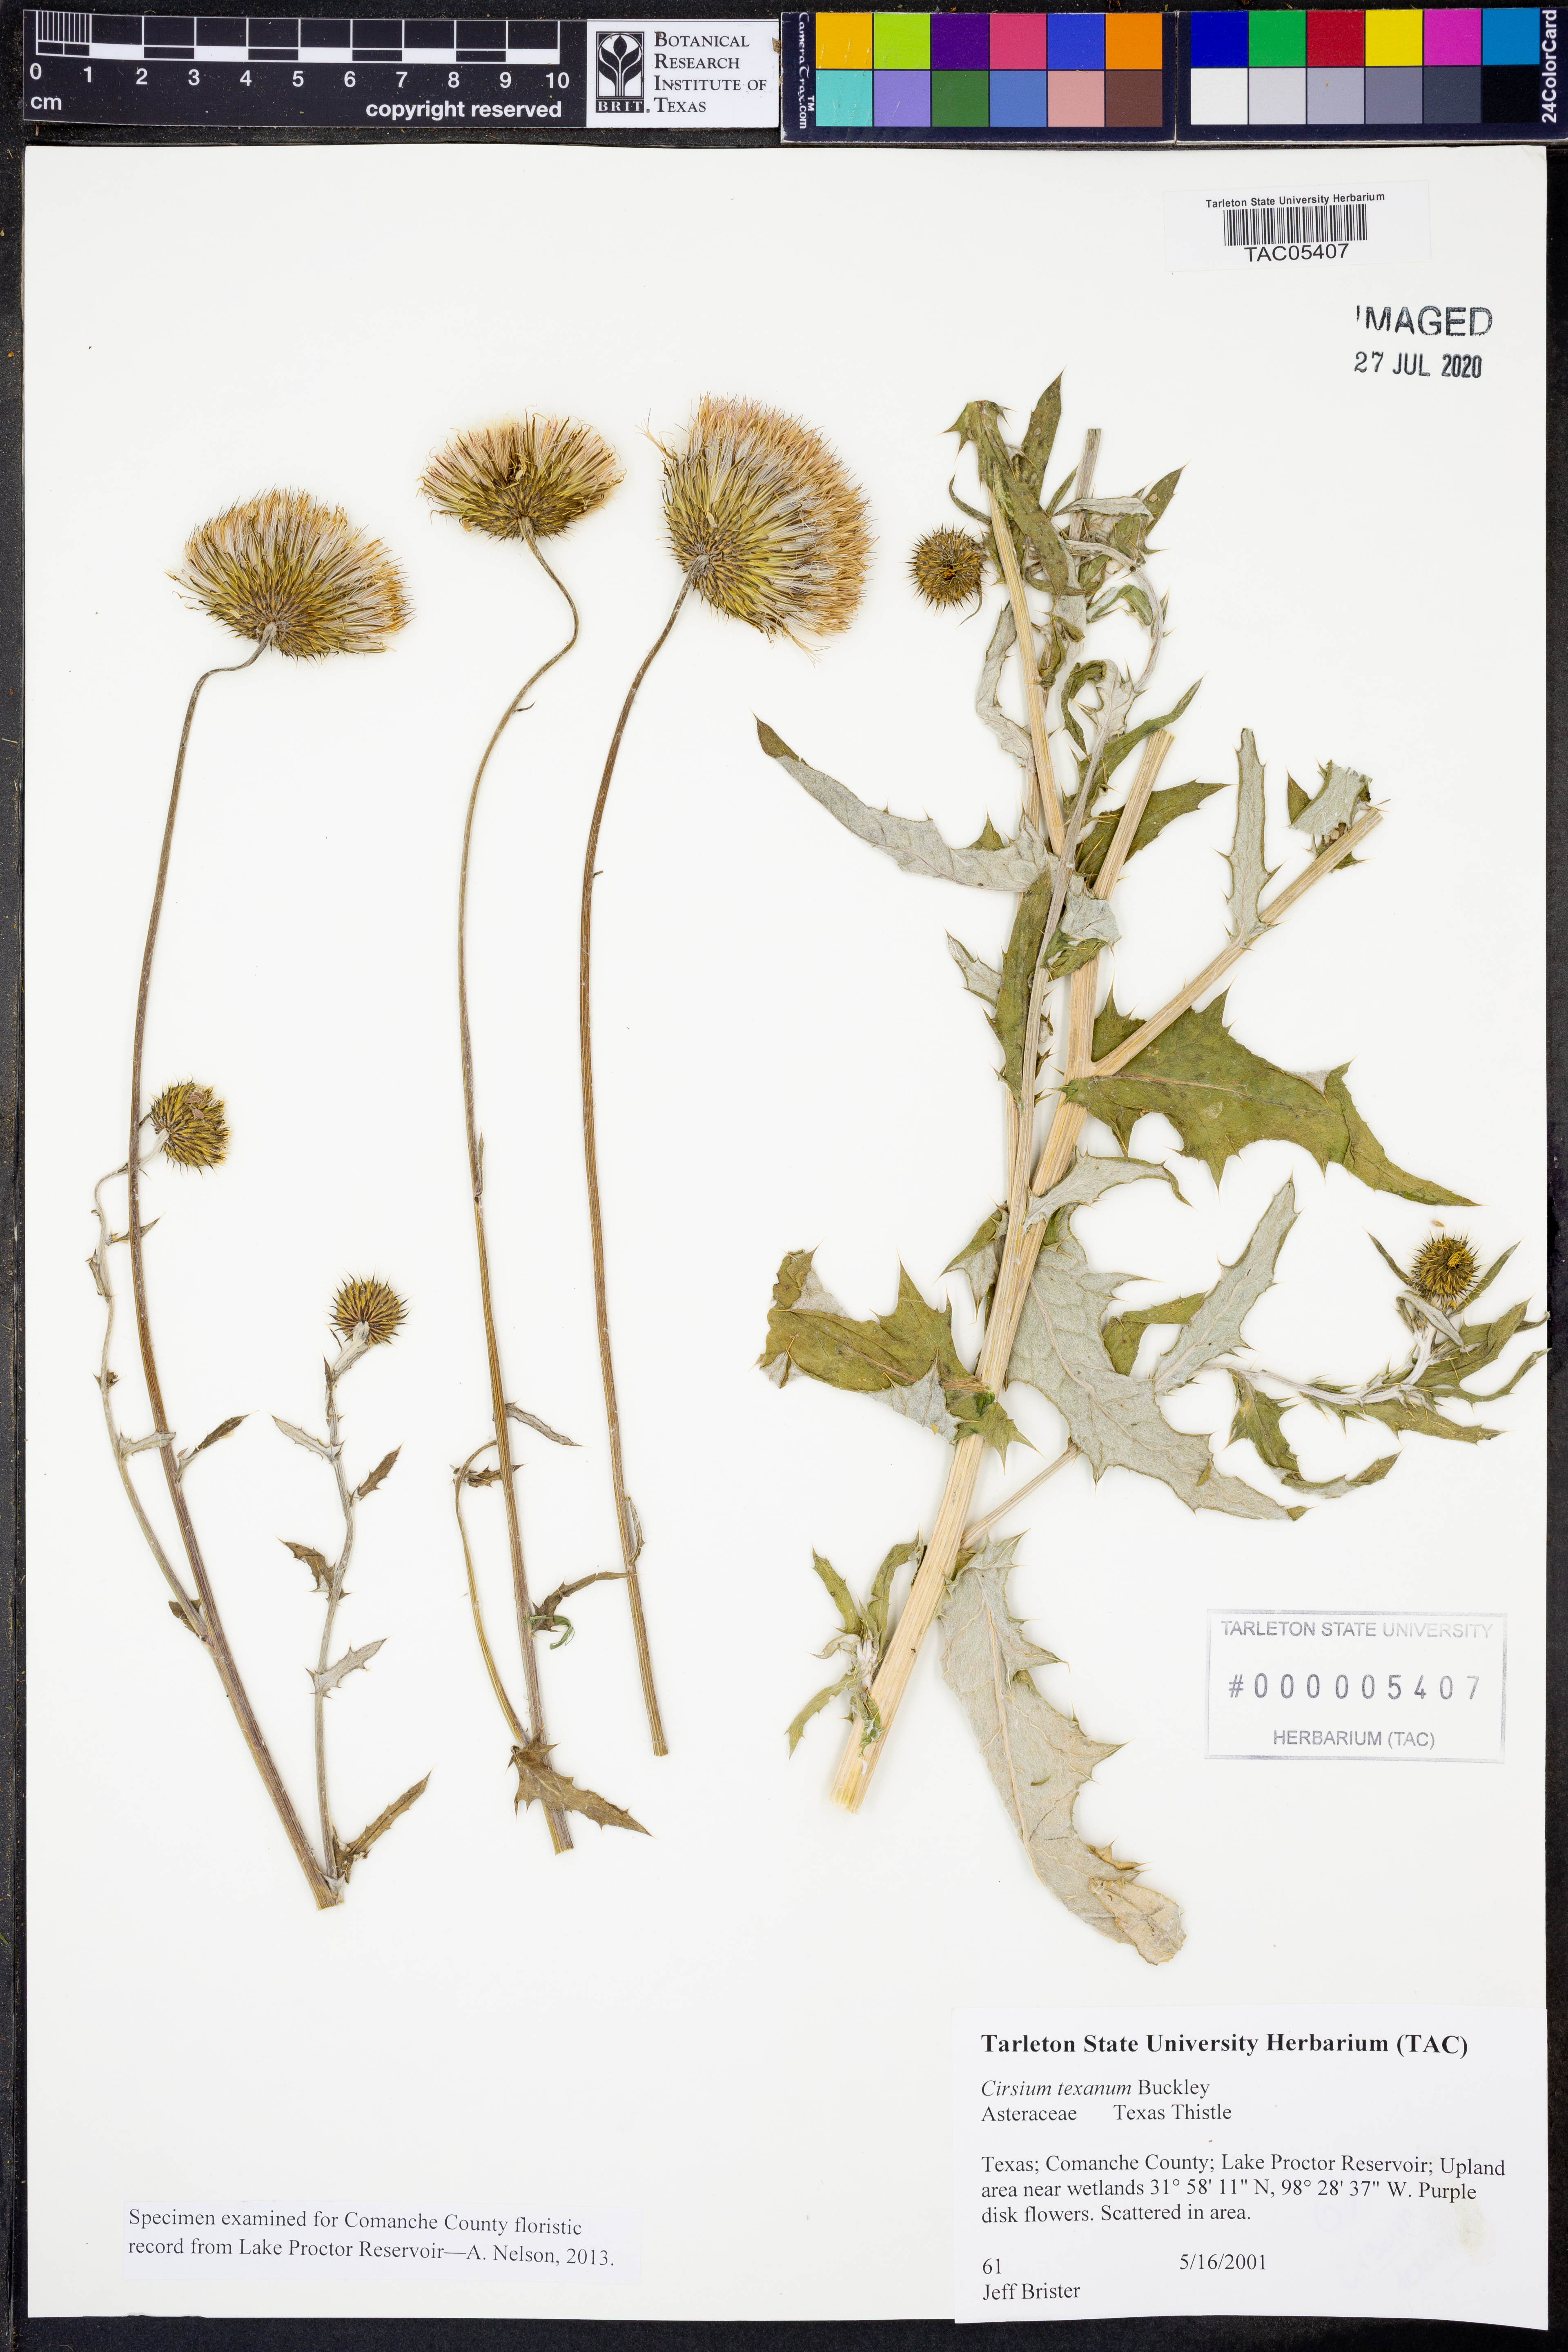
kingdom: Plantae
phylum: Tracheophyta
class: Magnoliopsida
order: Asterales
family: Asteraceae
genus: Cirsium
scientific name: Cirsium texanum
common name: Texas purple thistle
